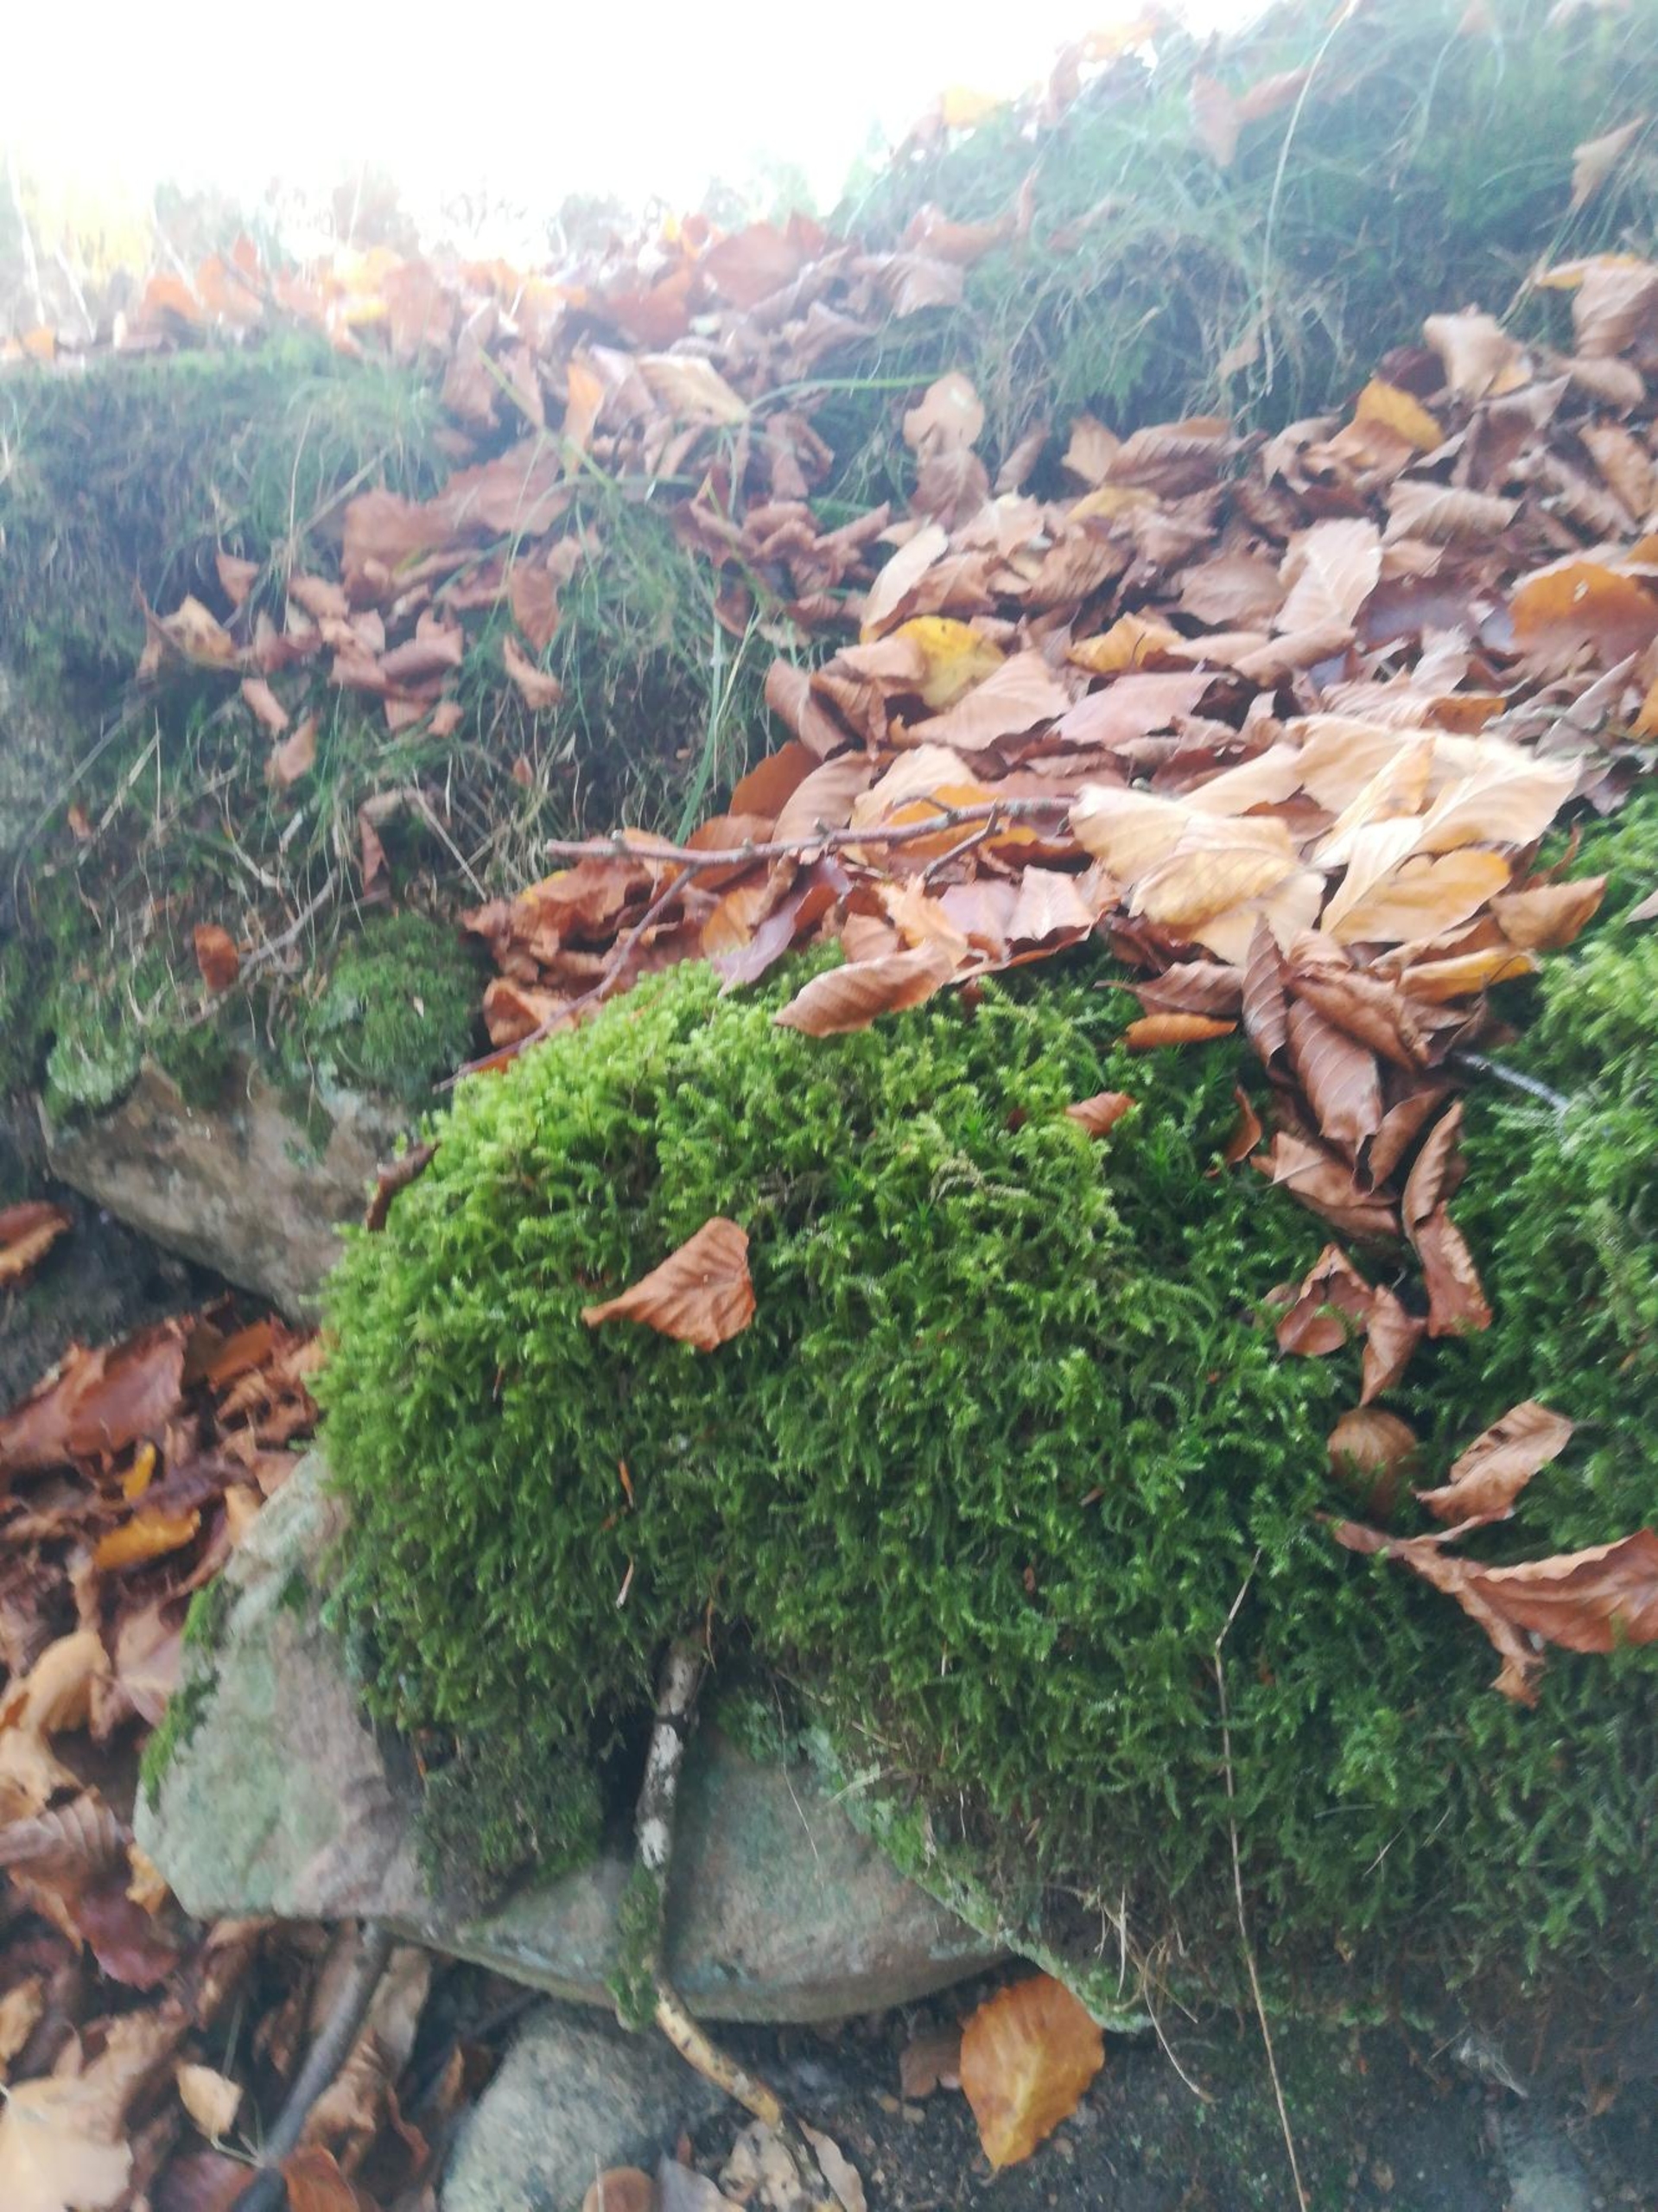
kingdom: Plantae
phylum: Bryophyta
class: Bryopsida
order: Hypnales
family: Hylocomiaceae
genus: Rhytidiadelphus
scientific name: Rhytidiadelphus loreus
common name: Ulvefod-kransemos
